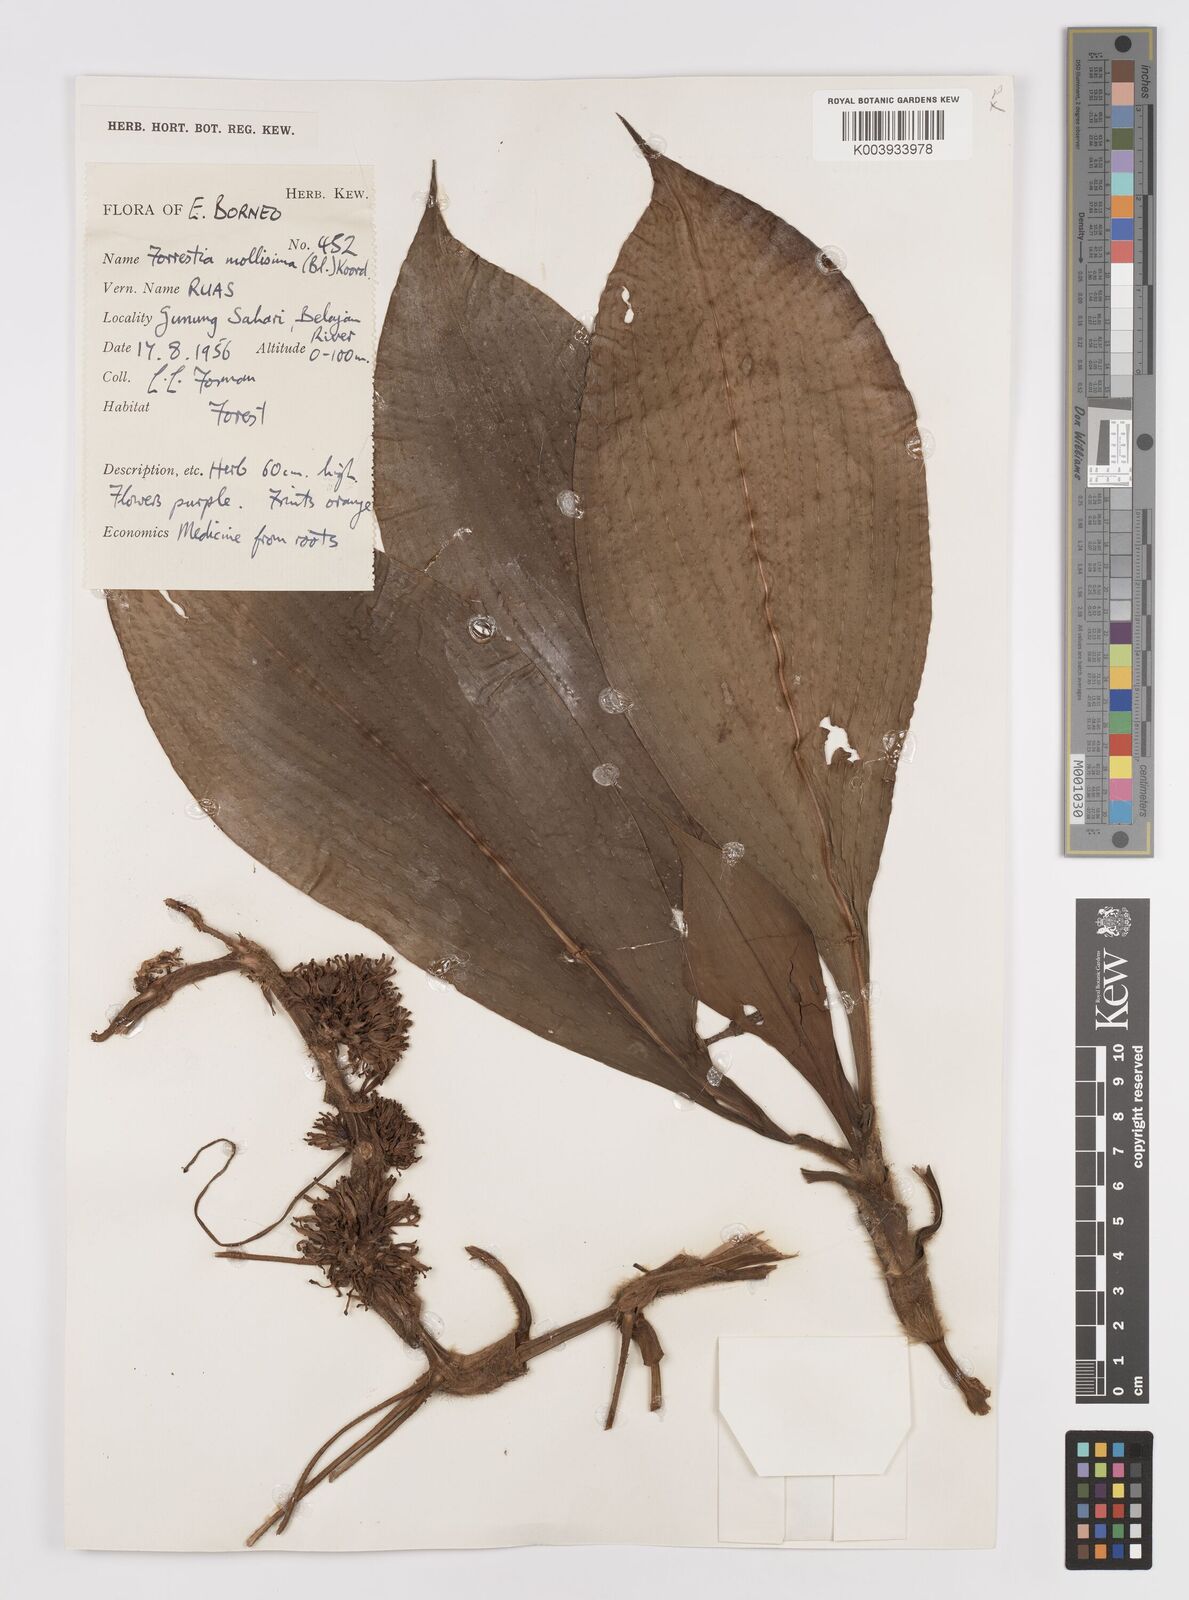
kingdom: Plantae
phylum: Tracheophyta
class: Liliopsida
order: Commelinales
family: Commelinaceae
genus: Amischotolype
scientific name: Amischotolype marginata
